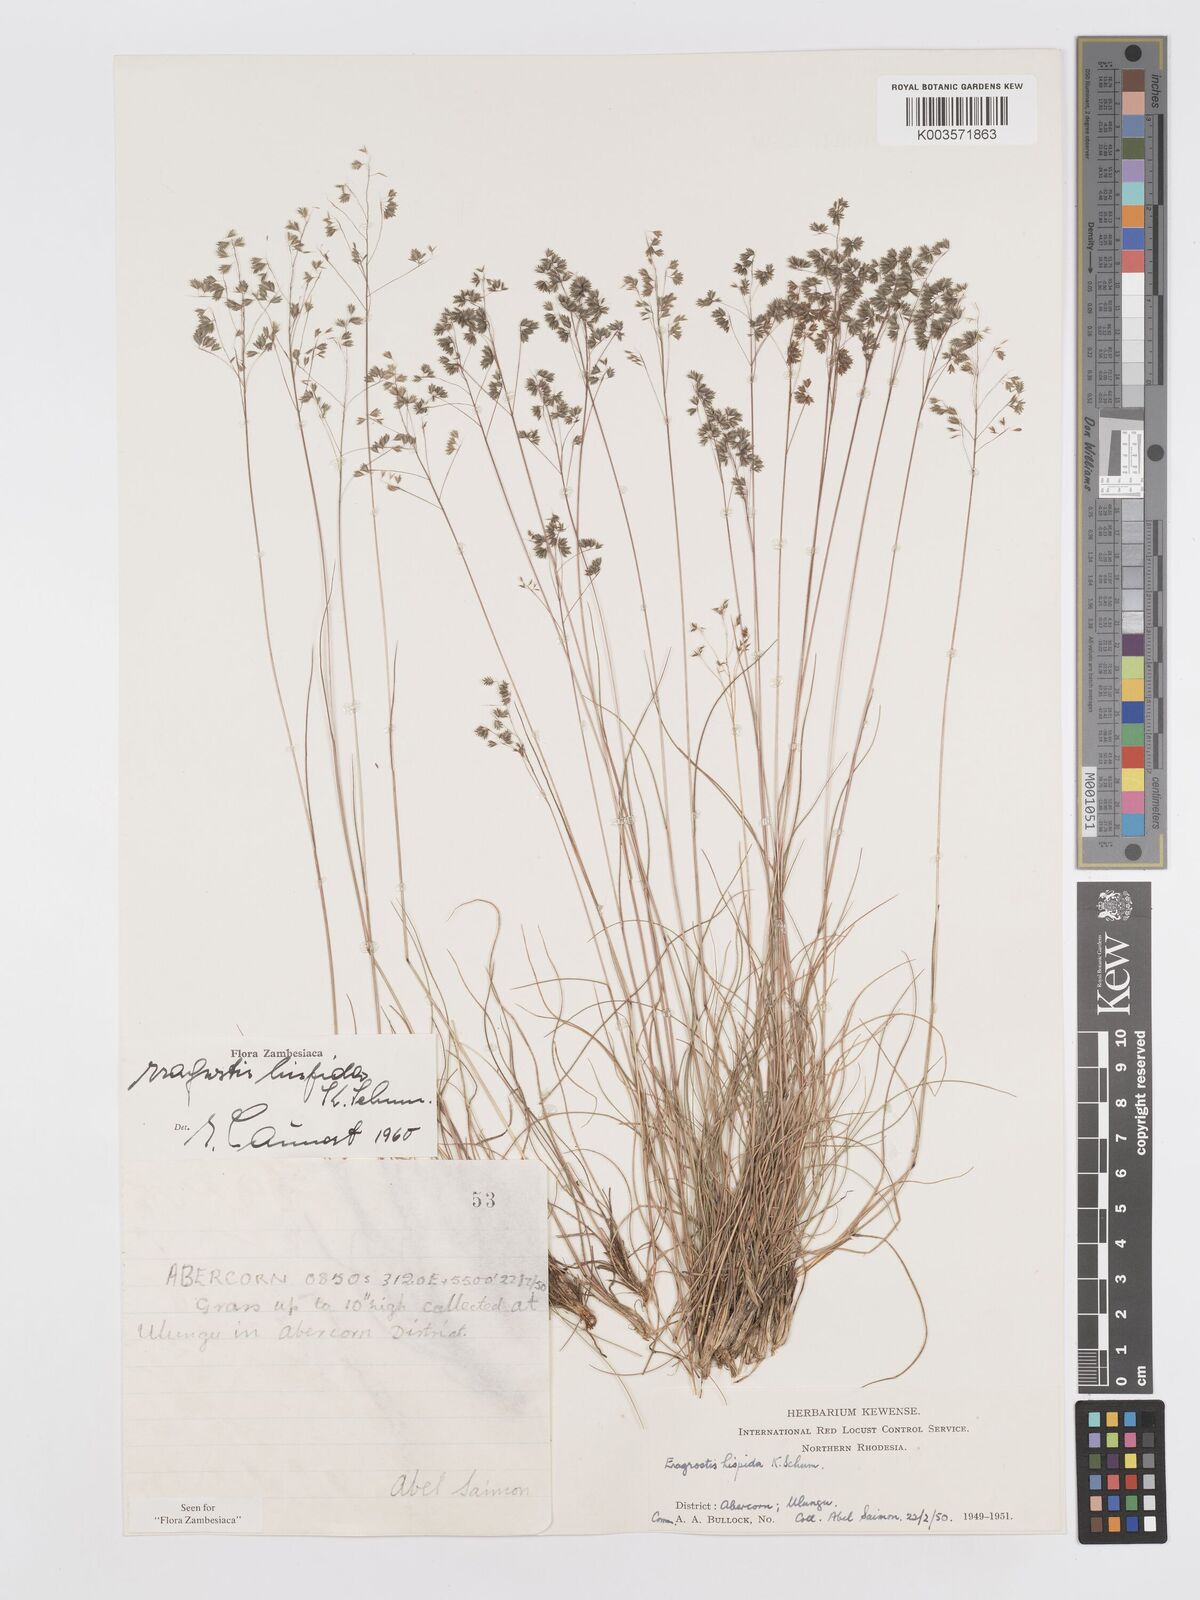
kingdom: Plantae
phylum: Tracheophyta
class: Liliopsida
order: Poales
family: Poaceae
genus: Eragrostis
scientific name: Eragrostis hispida
